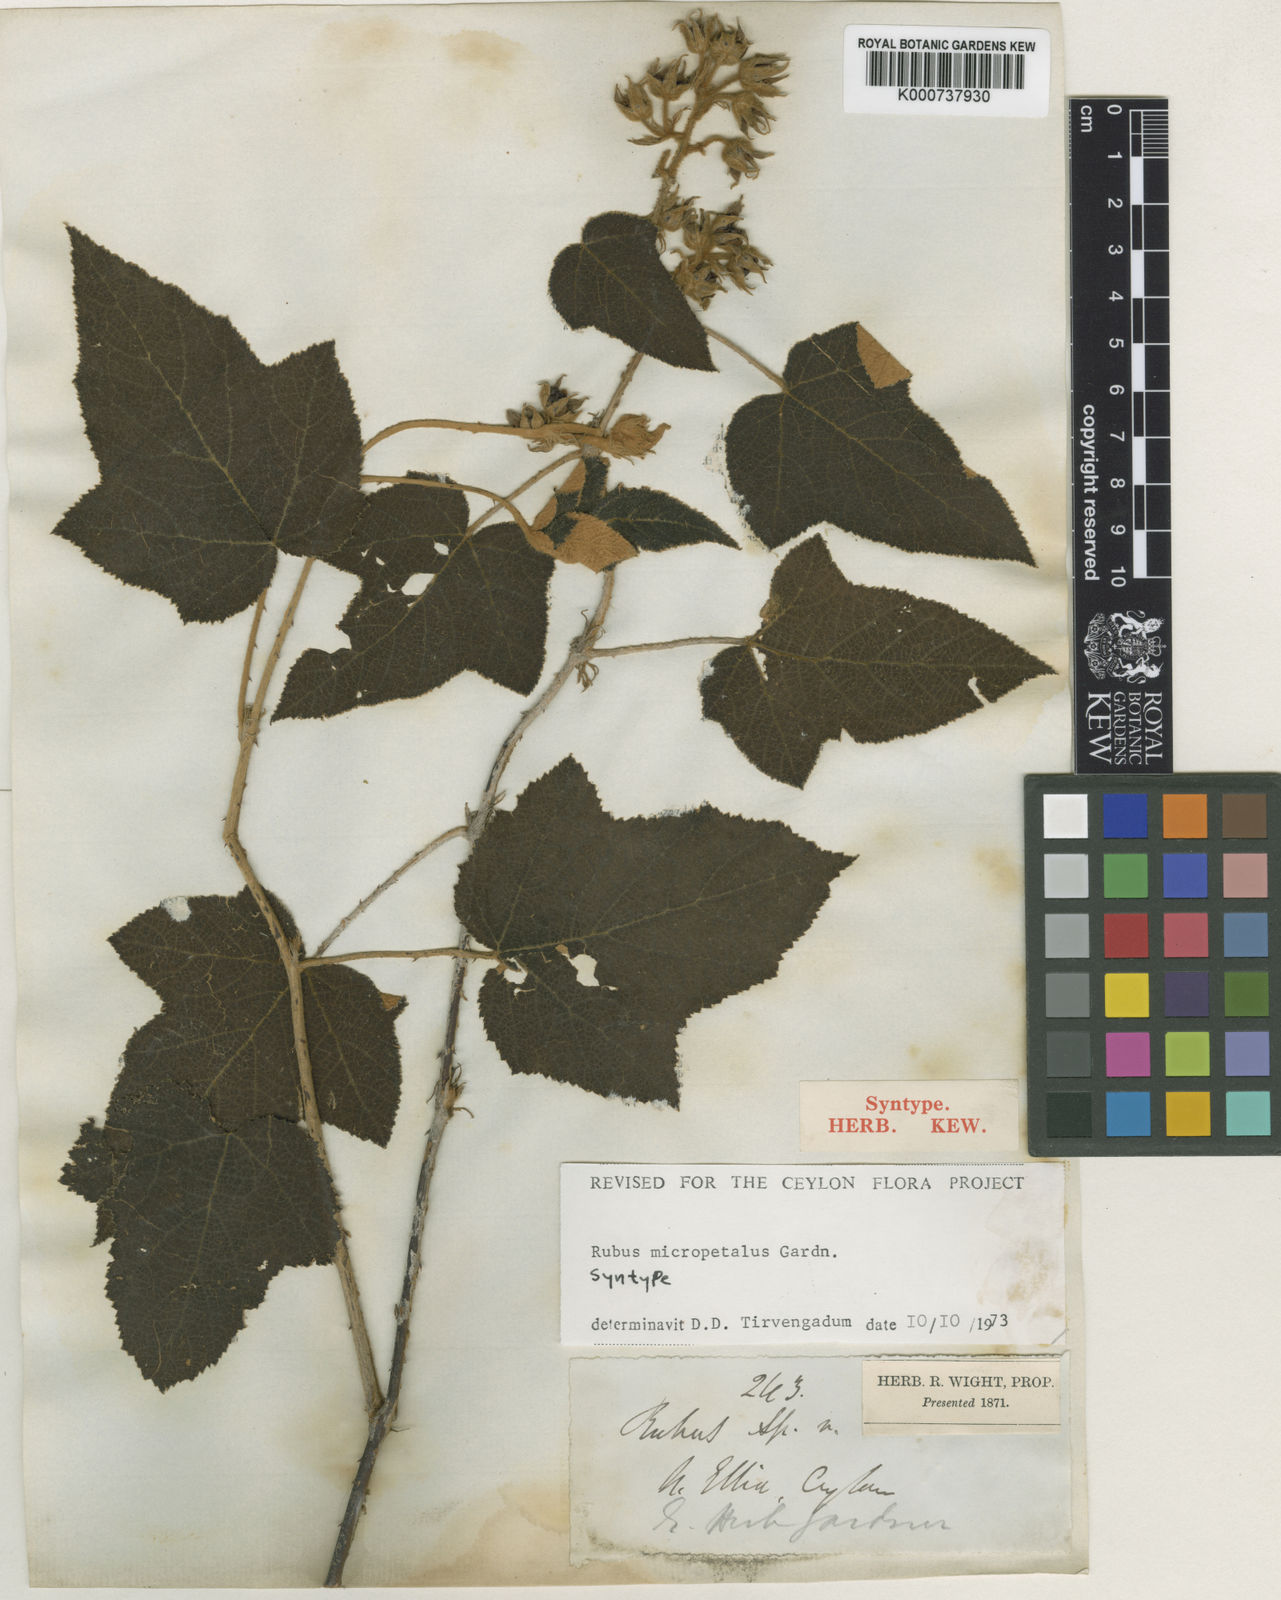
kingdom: Plantae
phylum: Tracheophyta
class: Magnoliopsida
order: Rosales
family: Rosaceae
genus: Rubus
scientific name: Rubus micropetalus
